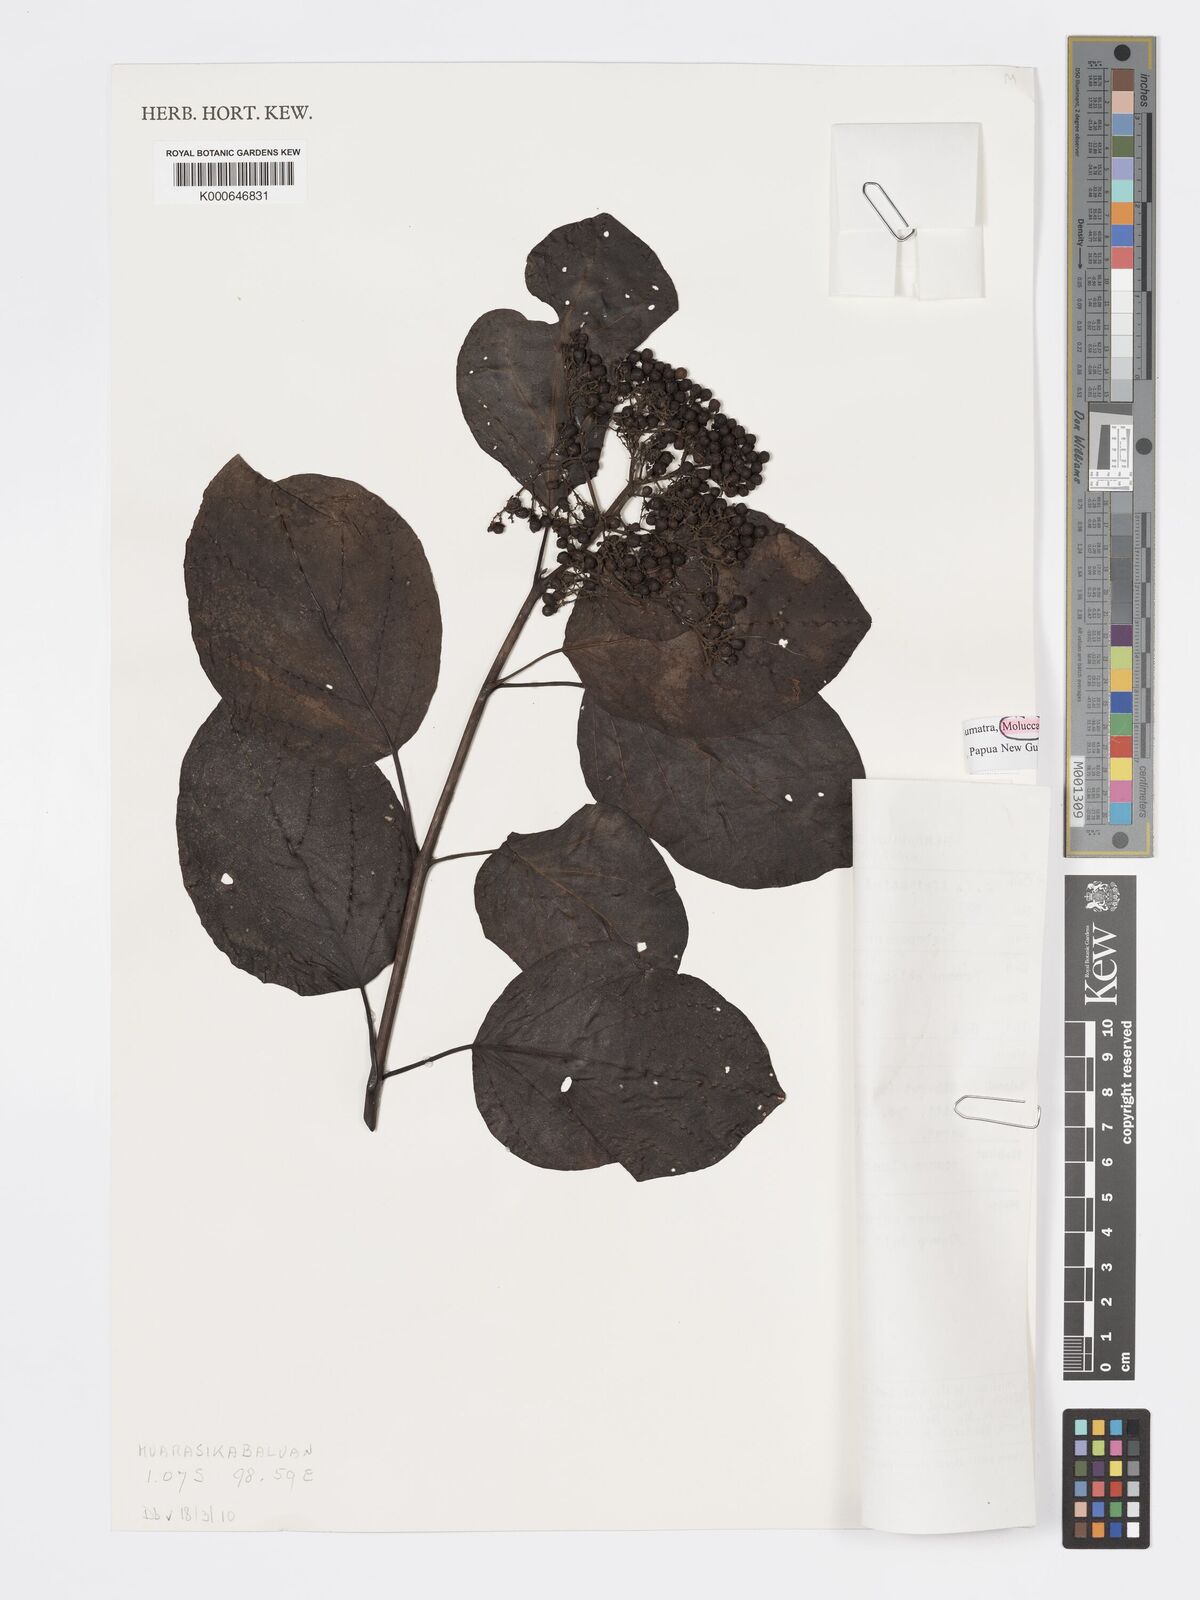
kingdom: Plantae
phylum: Tracheophyta
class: Magnoliopsida
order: Lamiales
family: Lamiaceae
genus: Premna
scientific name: Premna serratifolia
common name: Bastard guelder
